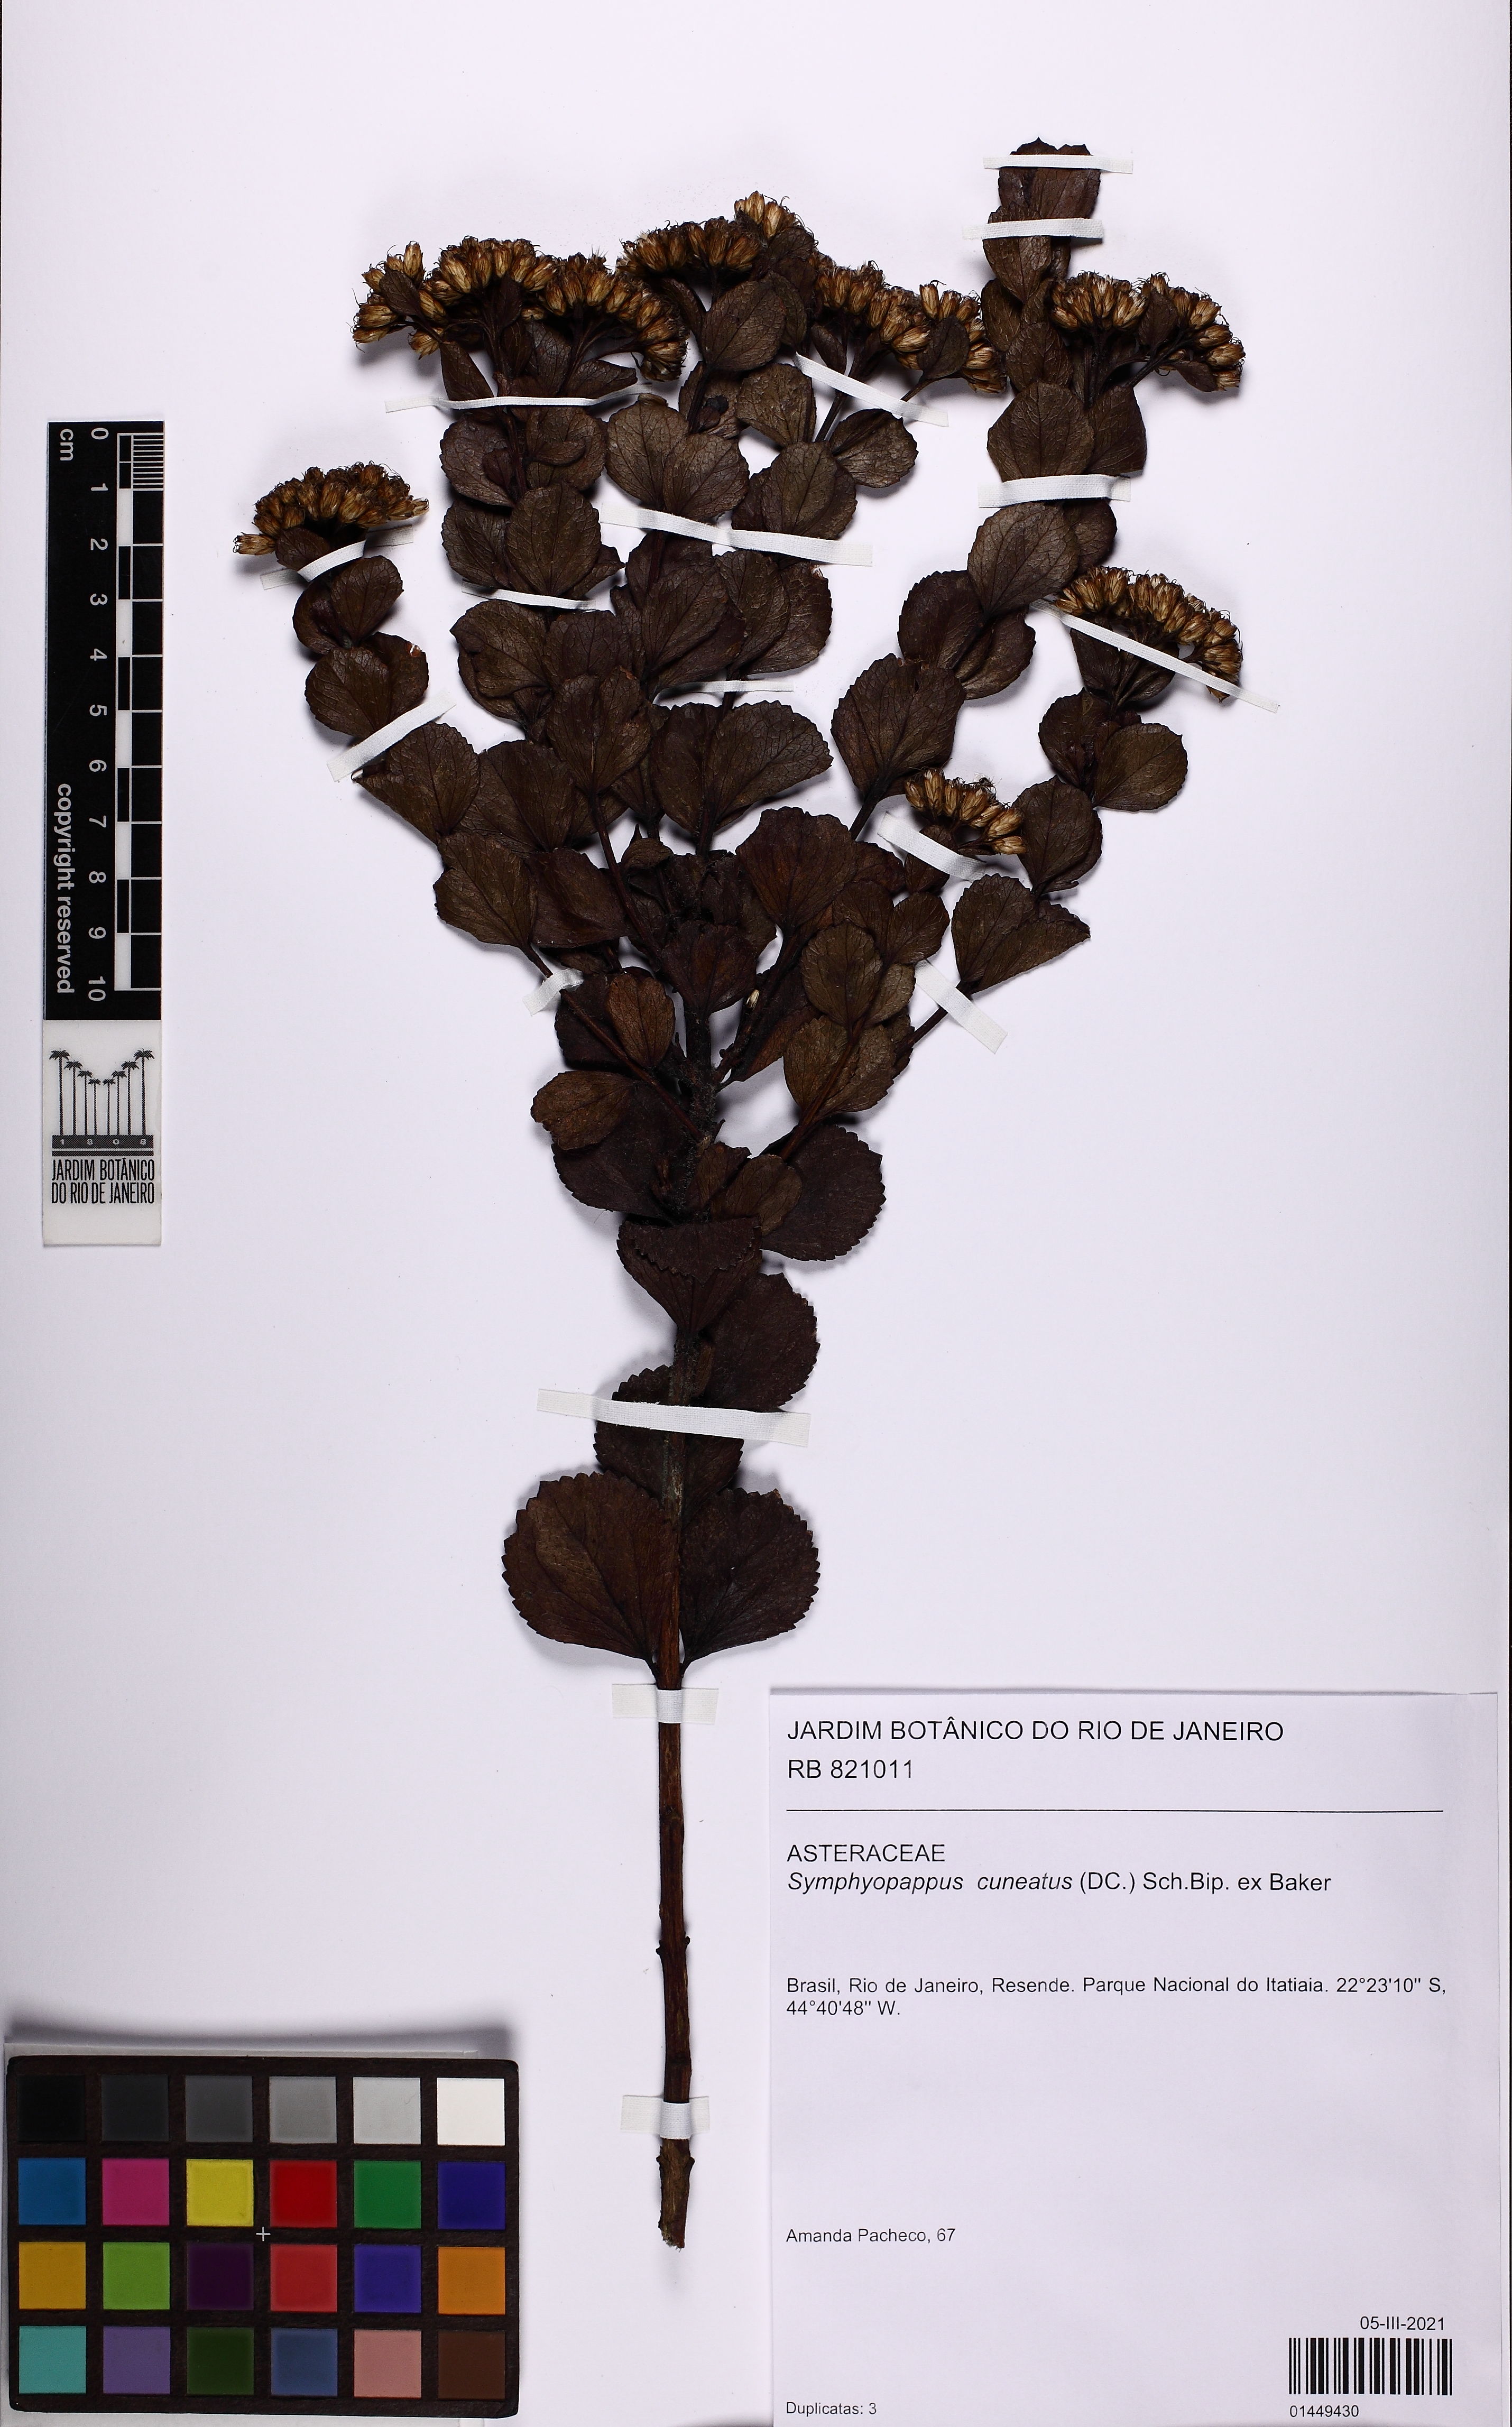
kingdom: Plantae
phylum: Tracheophyta
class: Magnoliopsida
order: Asterales
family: Asteraceae
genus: Symphyopappus
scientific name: Symphyopappus cuneatus
